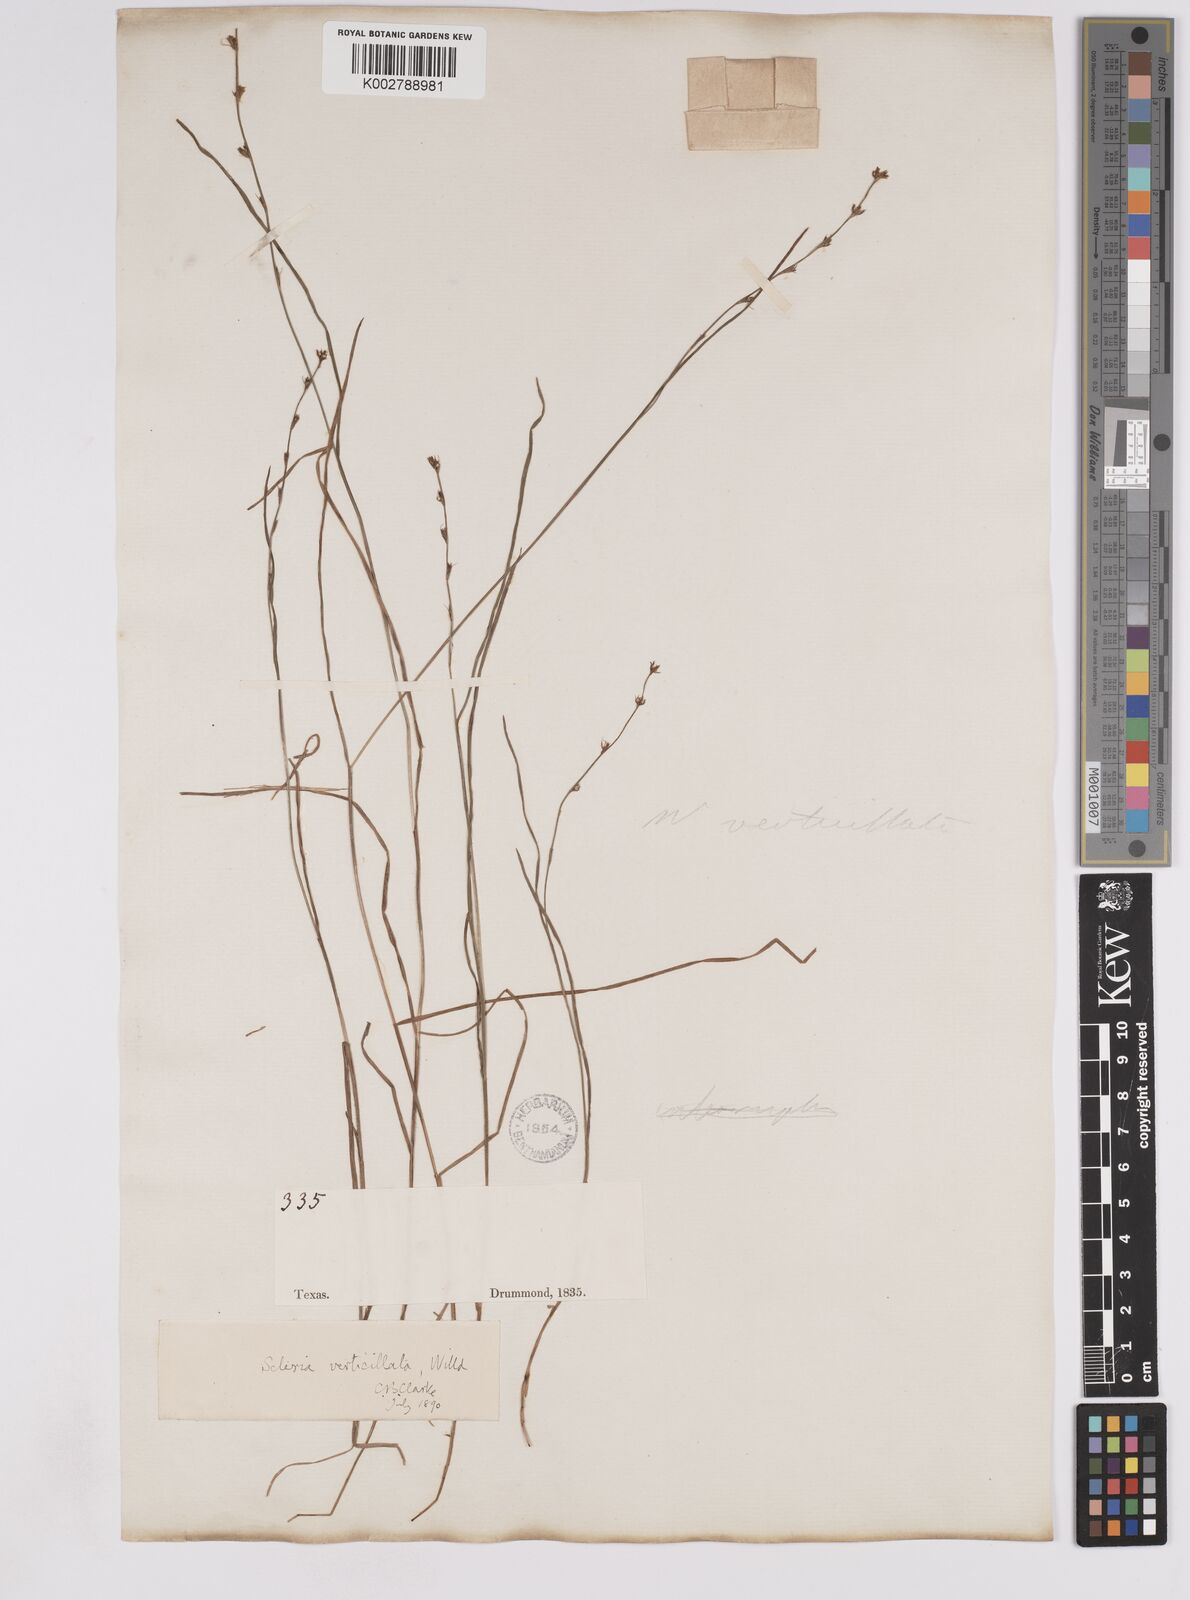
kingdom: Plantae
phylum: Tracheophyta
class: Liliopsida
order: Poales
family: Cyperaceae
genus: Scleria
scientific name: Scleria verticillata
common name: Low nutrush
